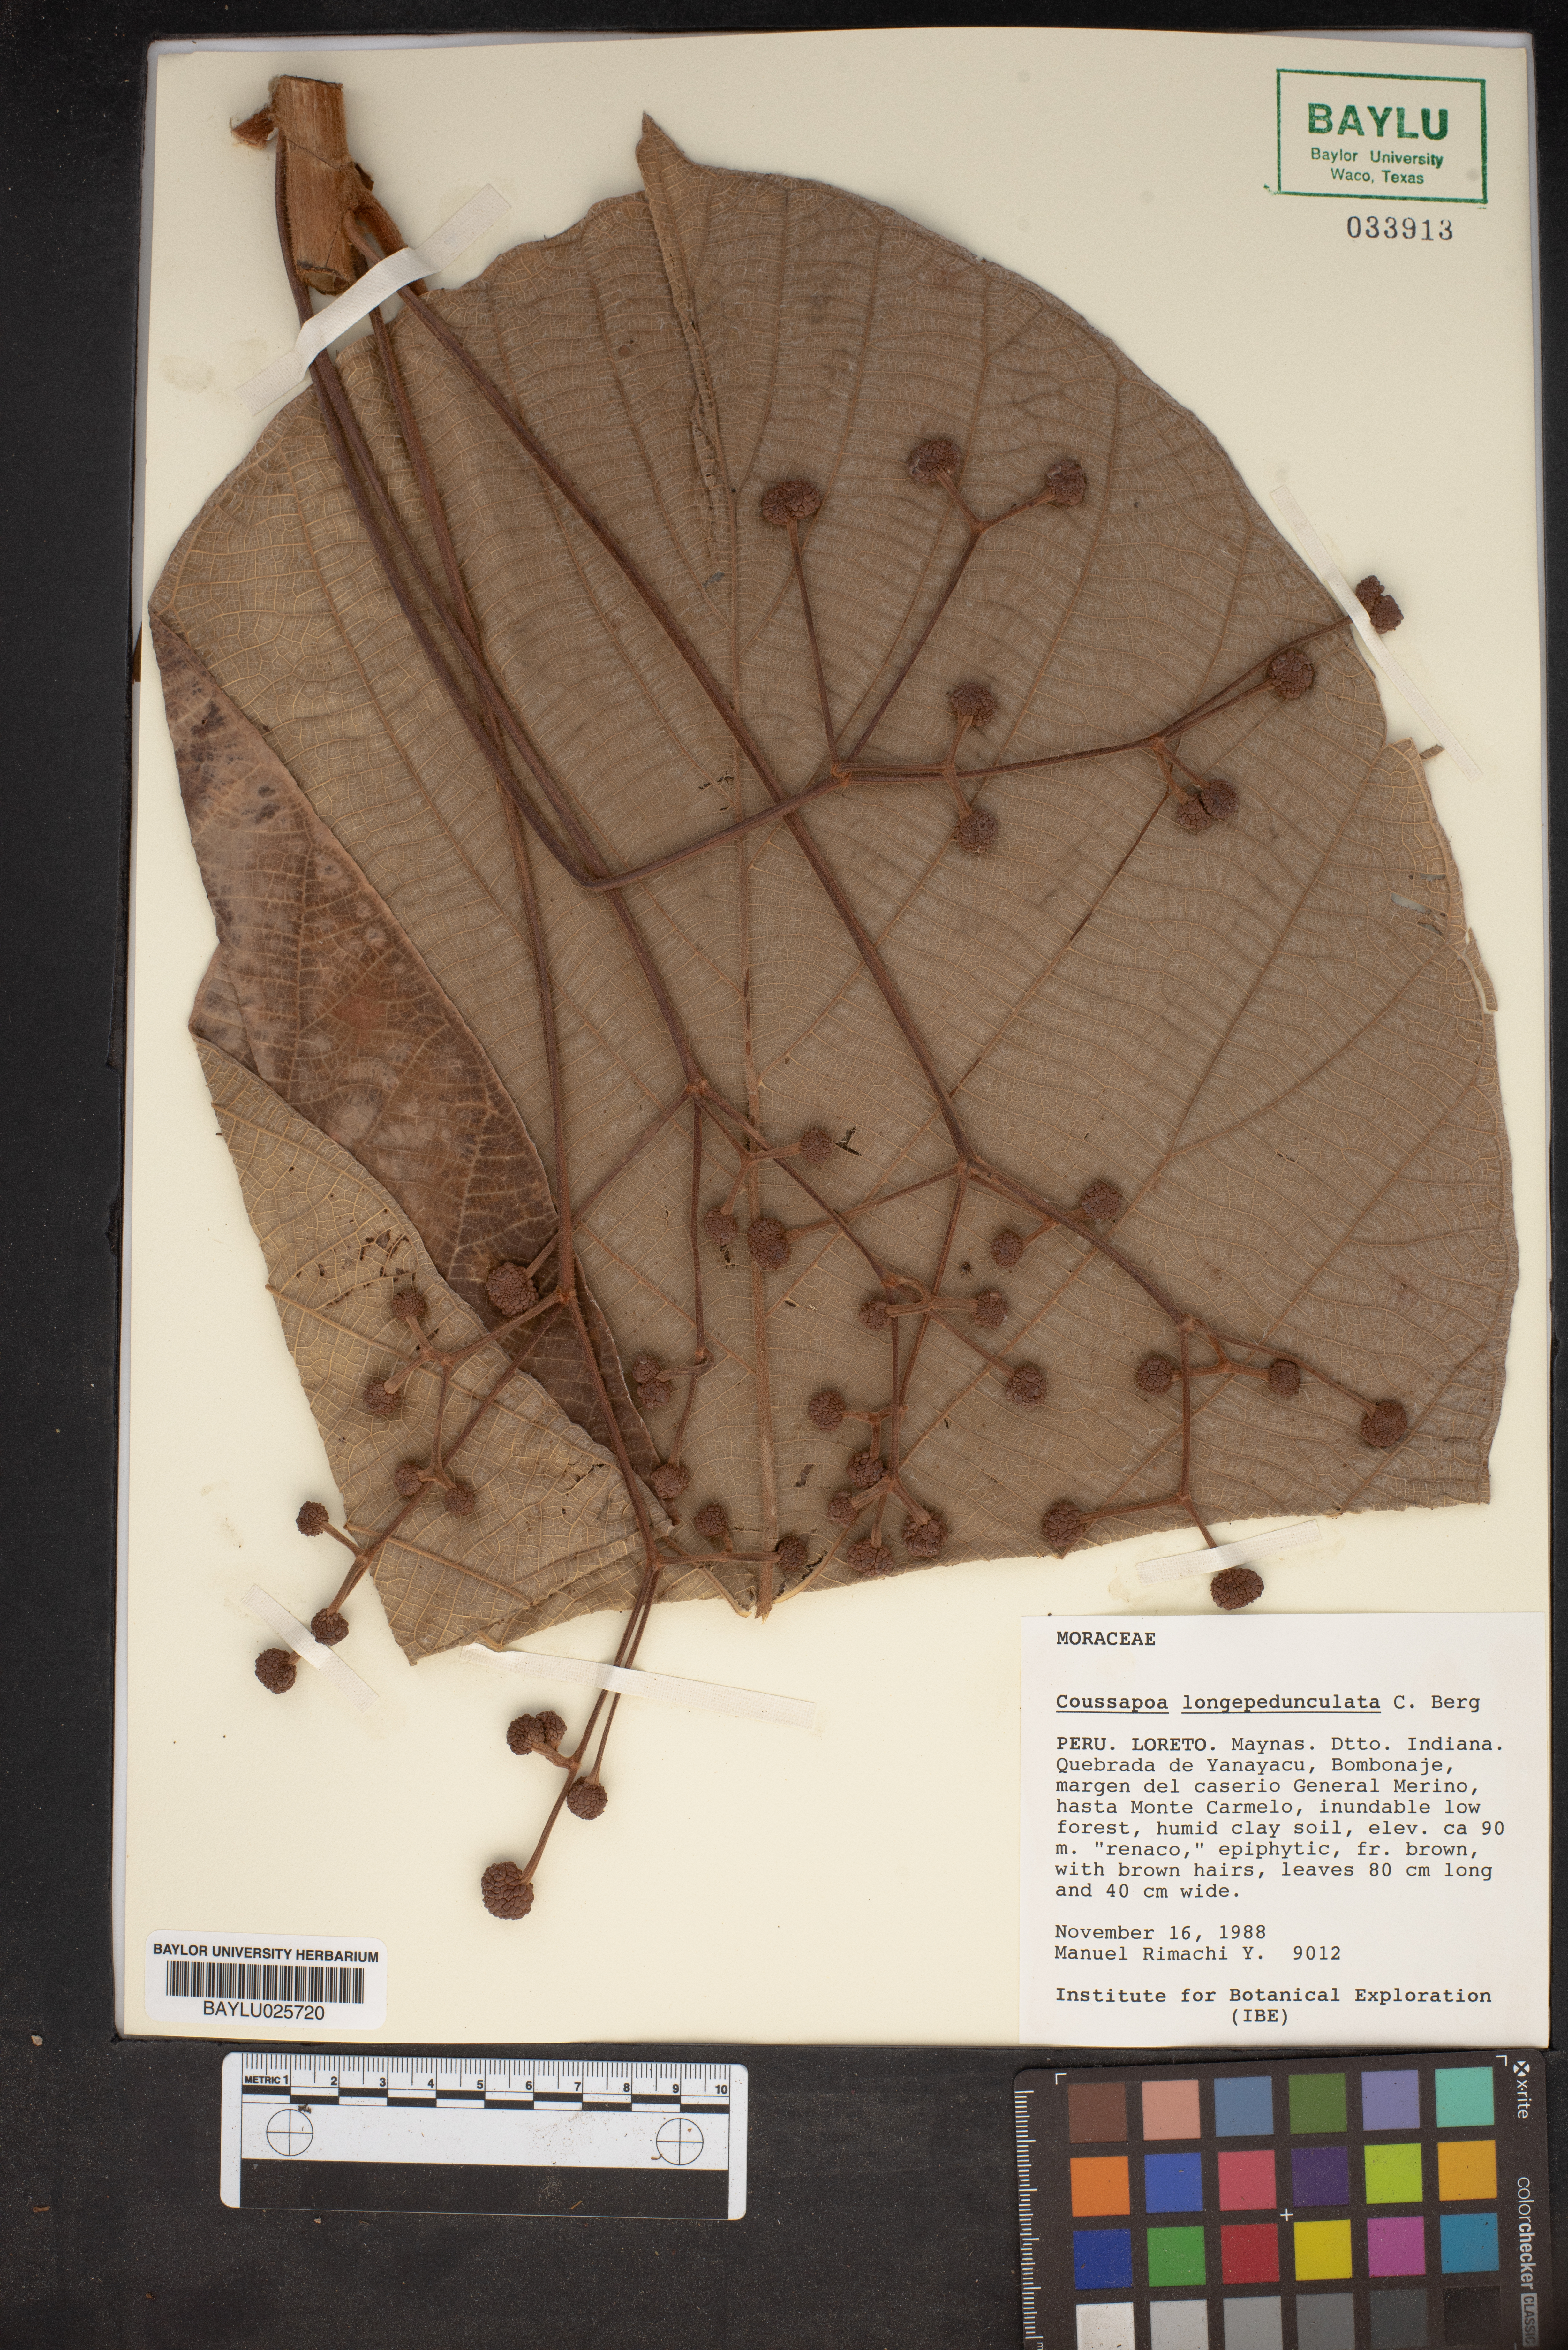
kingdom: Plantae
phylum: Tracheophyta
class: Magnoliopsida
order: Rosales
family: Urticaceae
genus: Coussapoa
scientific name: Coussapoa longepedunculata
